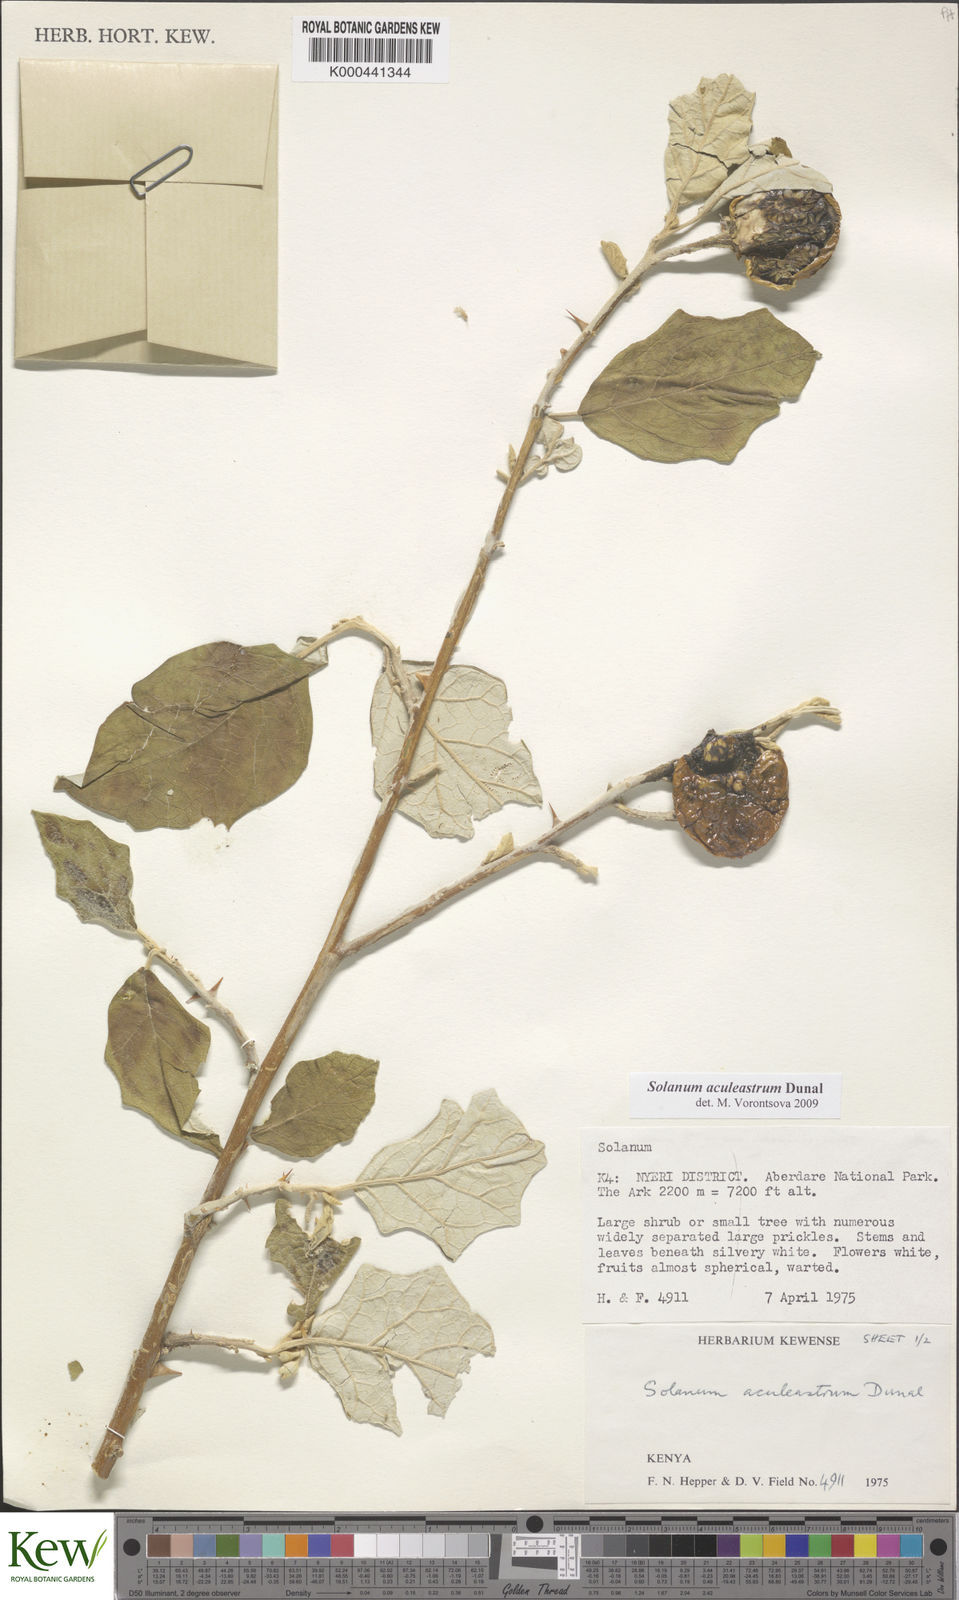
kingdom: Plantae
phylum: Tracheophyta
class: Magnoliopsida
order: Solanales
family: Solanaceae
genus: Solanum
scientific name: Solanum aculeastrum
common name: Goat bitter-apple
